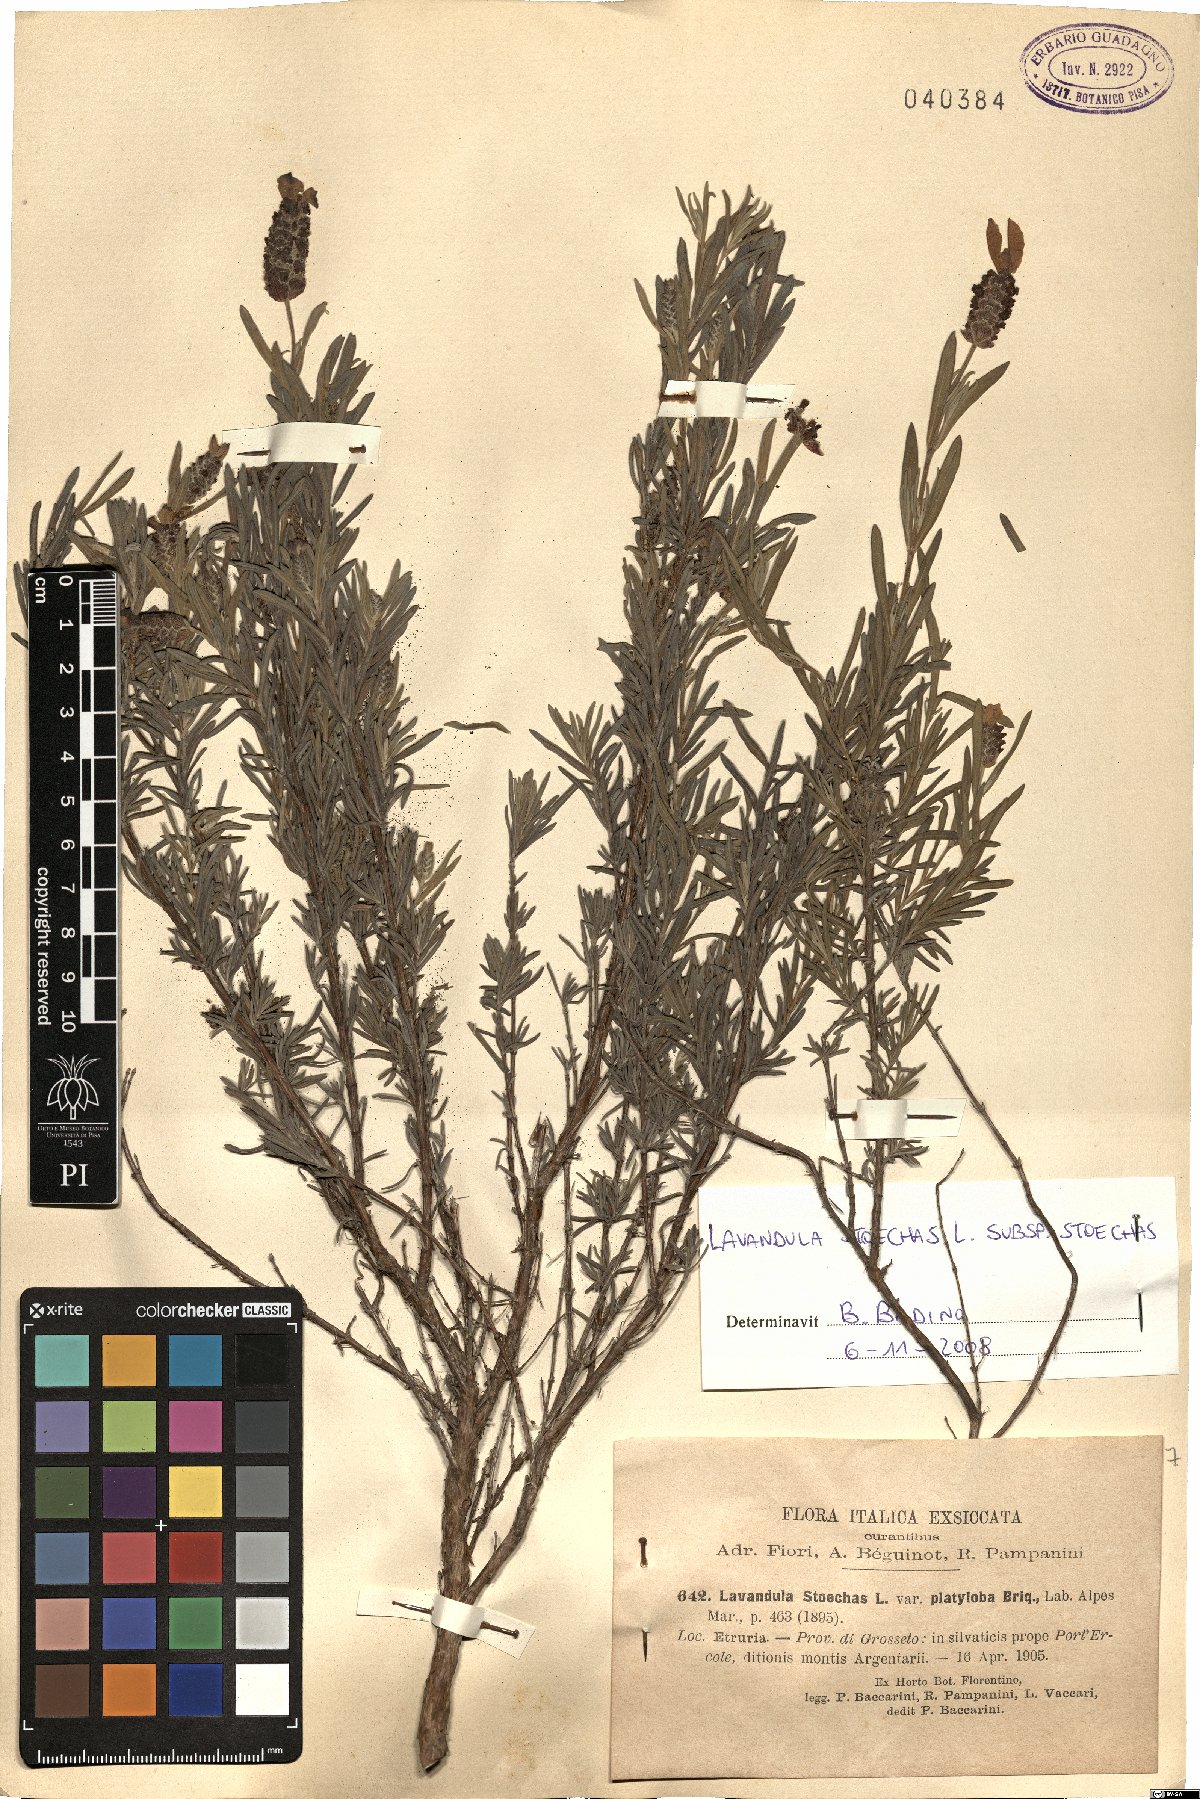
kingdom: Plantae
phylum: Tracheophyta
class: Magnoliopsida
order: Lamiales
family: Lamiaceae
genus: Lavandula
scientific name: Lavandula stoechas
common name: French lavender
